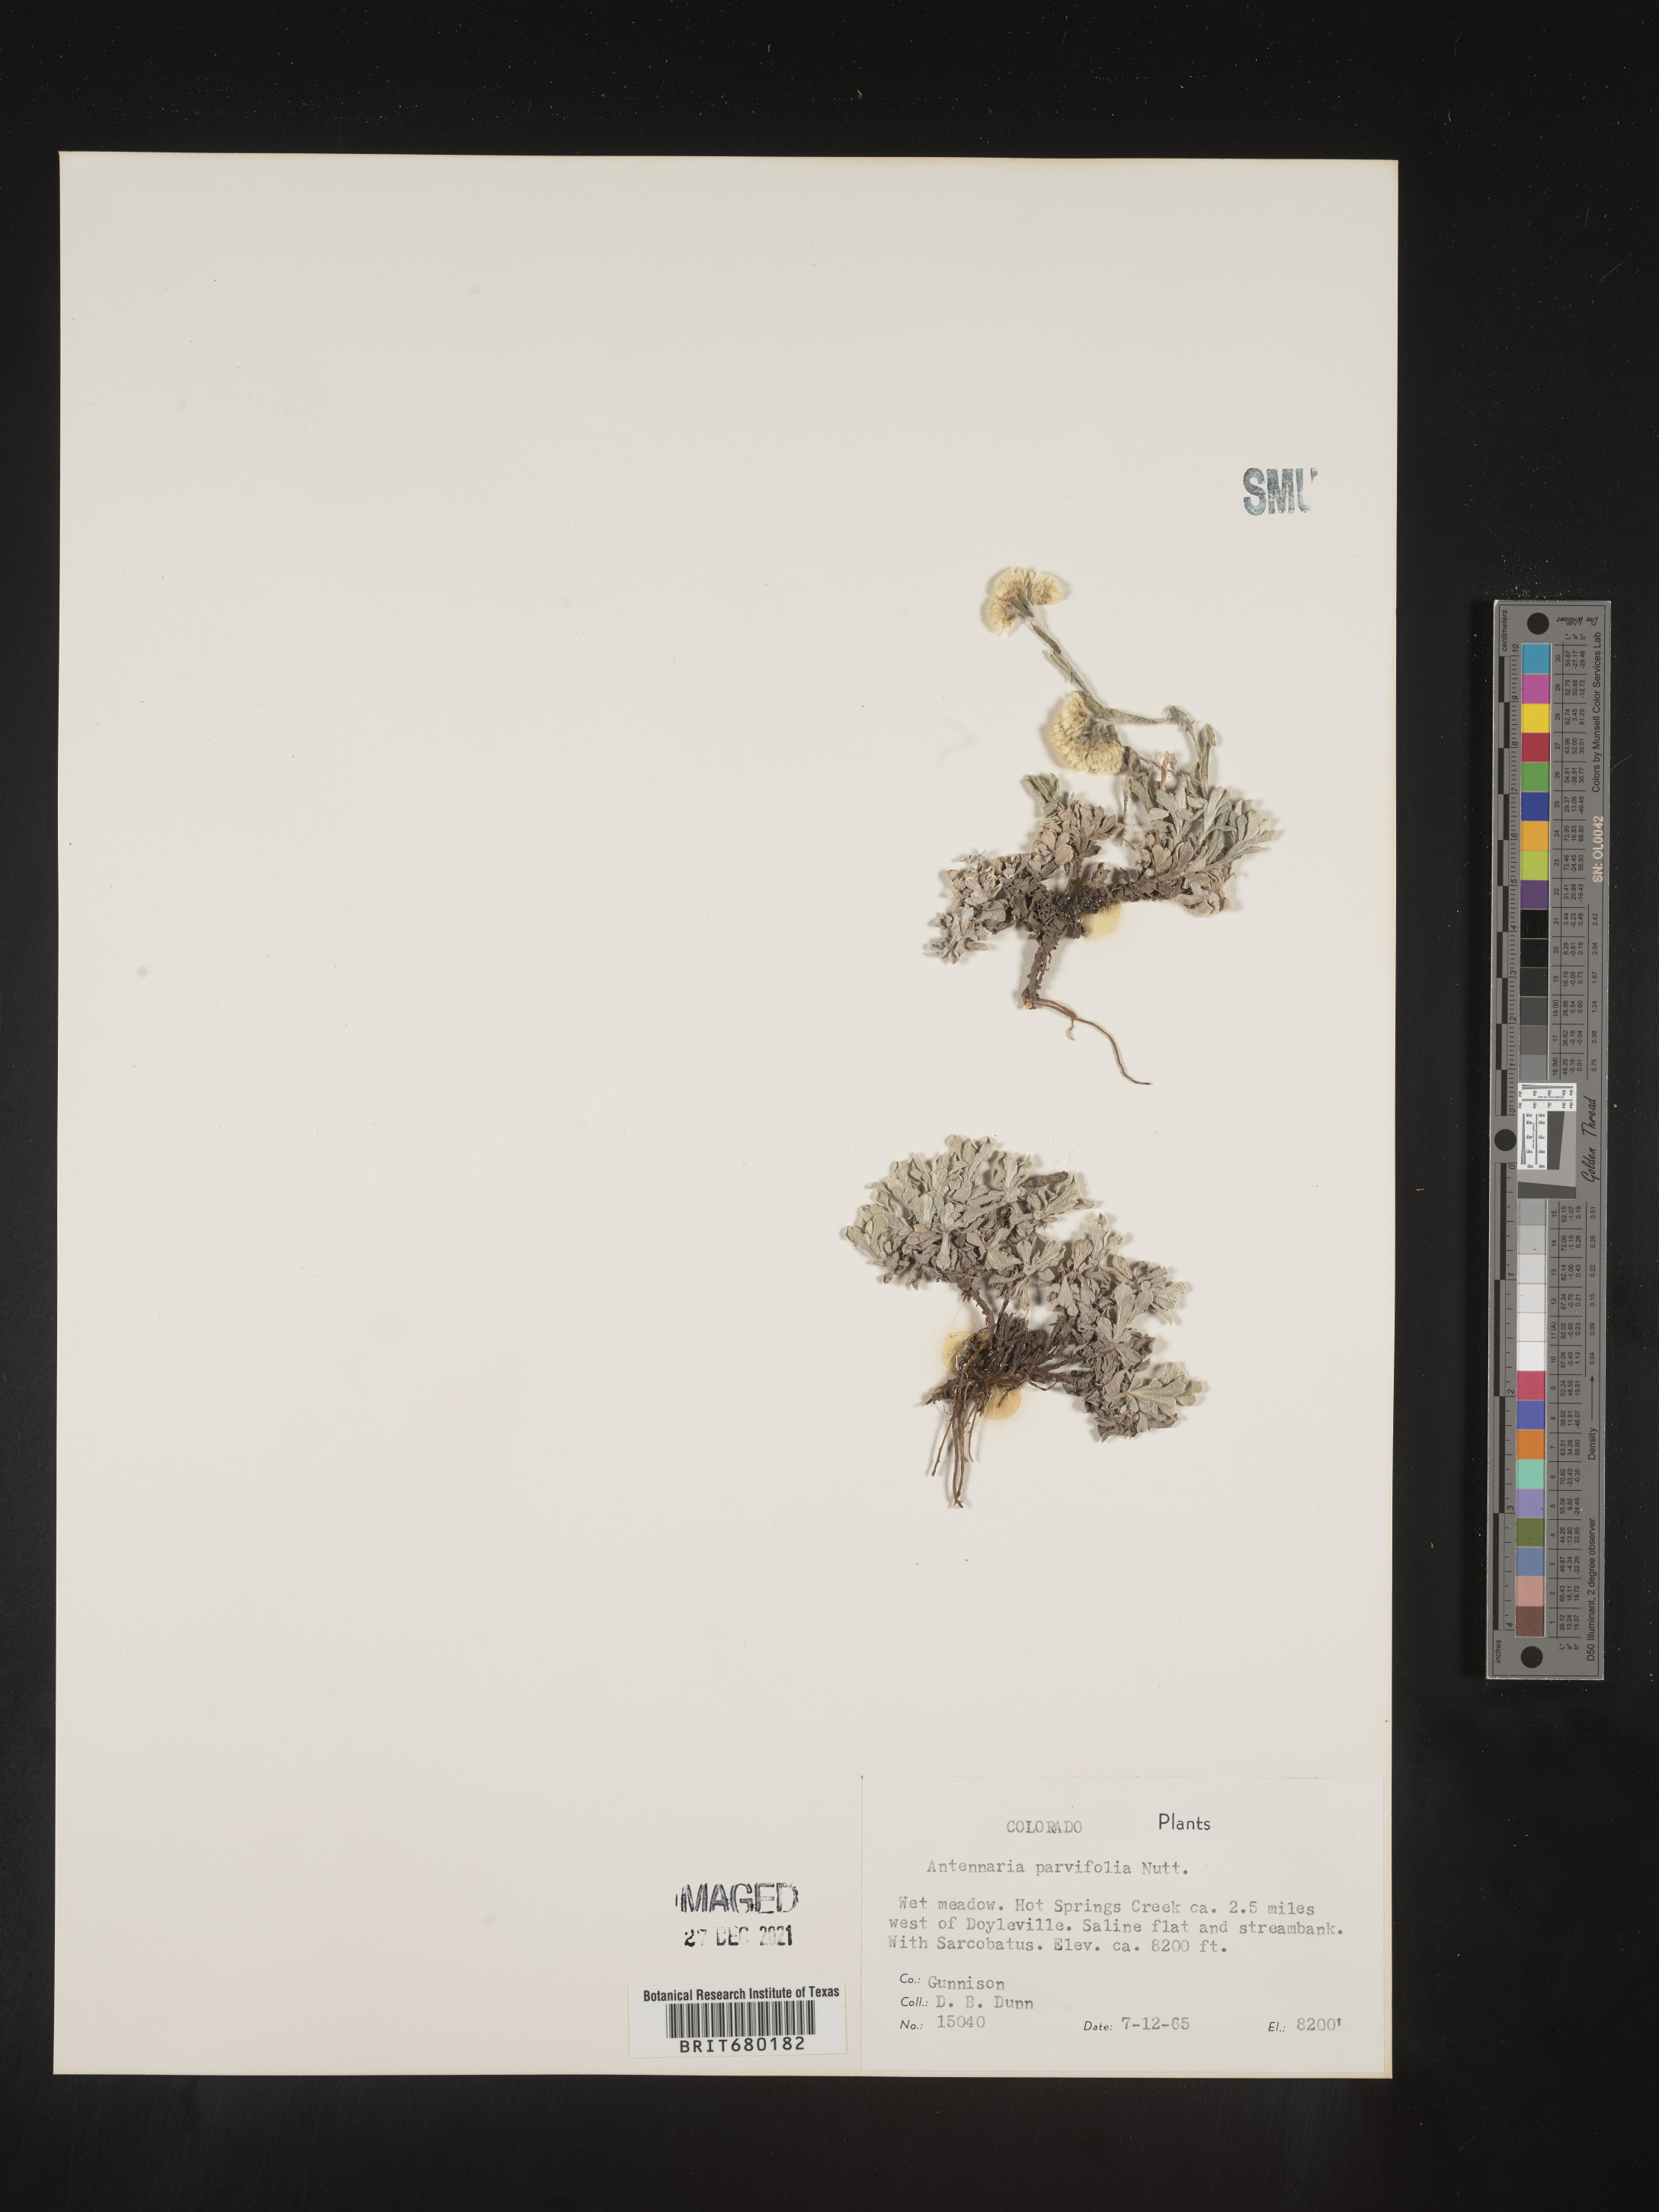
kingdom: Plantae
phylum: Tracheophyta
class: Magnoliopsida
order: Asterales
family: Asteraceae
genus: Antennaria
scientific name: Antennaria plantaginifolia
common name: Plantain-leaved pussytoes
